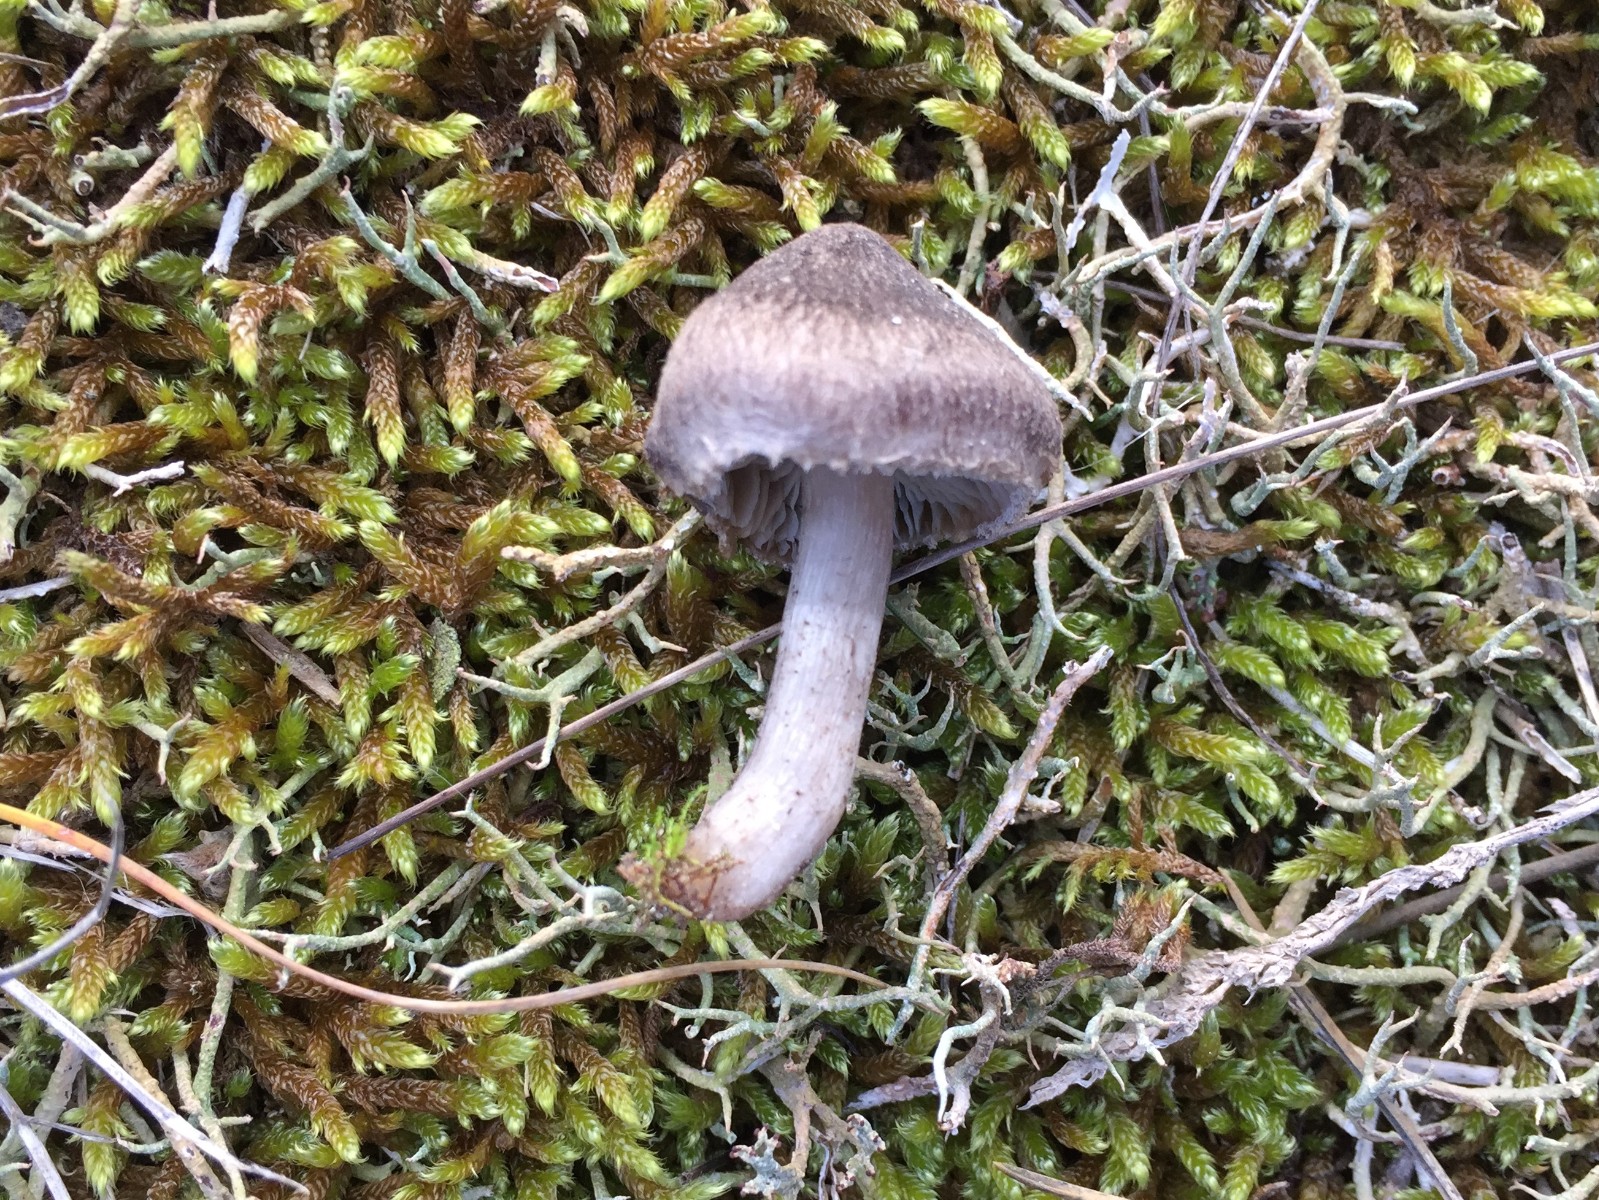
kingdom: Fungi
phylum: Basidiomycota
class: Agaricomycetes
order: Agaricales
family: Tricholomataceae
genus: Tricholoma
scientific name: Tricholoma terreum
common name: jordfarvet ridderhat
